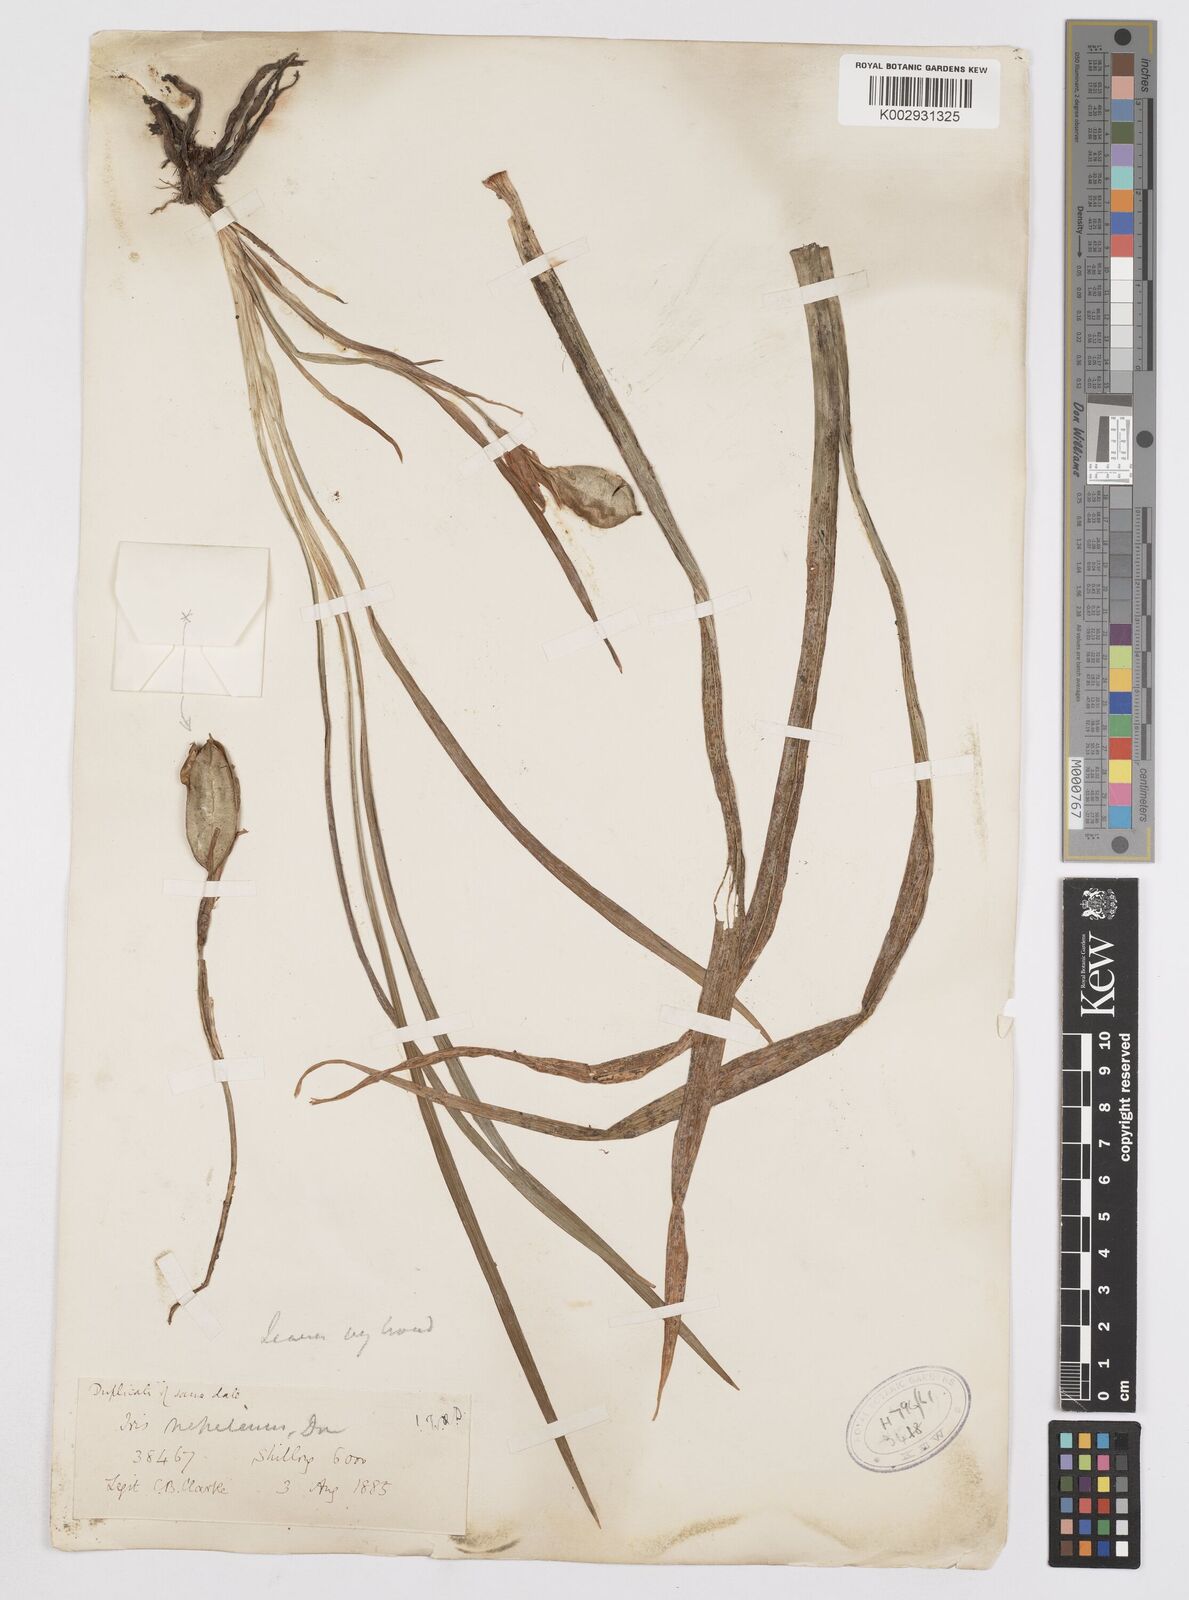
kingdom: Plantae
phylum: Tracheophyta
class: Liliopsida
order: Asparagales
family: Iridaceae
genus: Iris
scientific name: Iris decora
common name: Nepal iris
